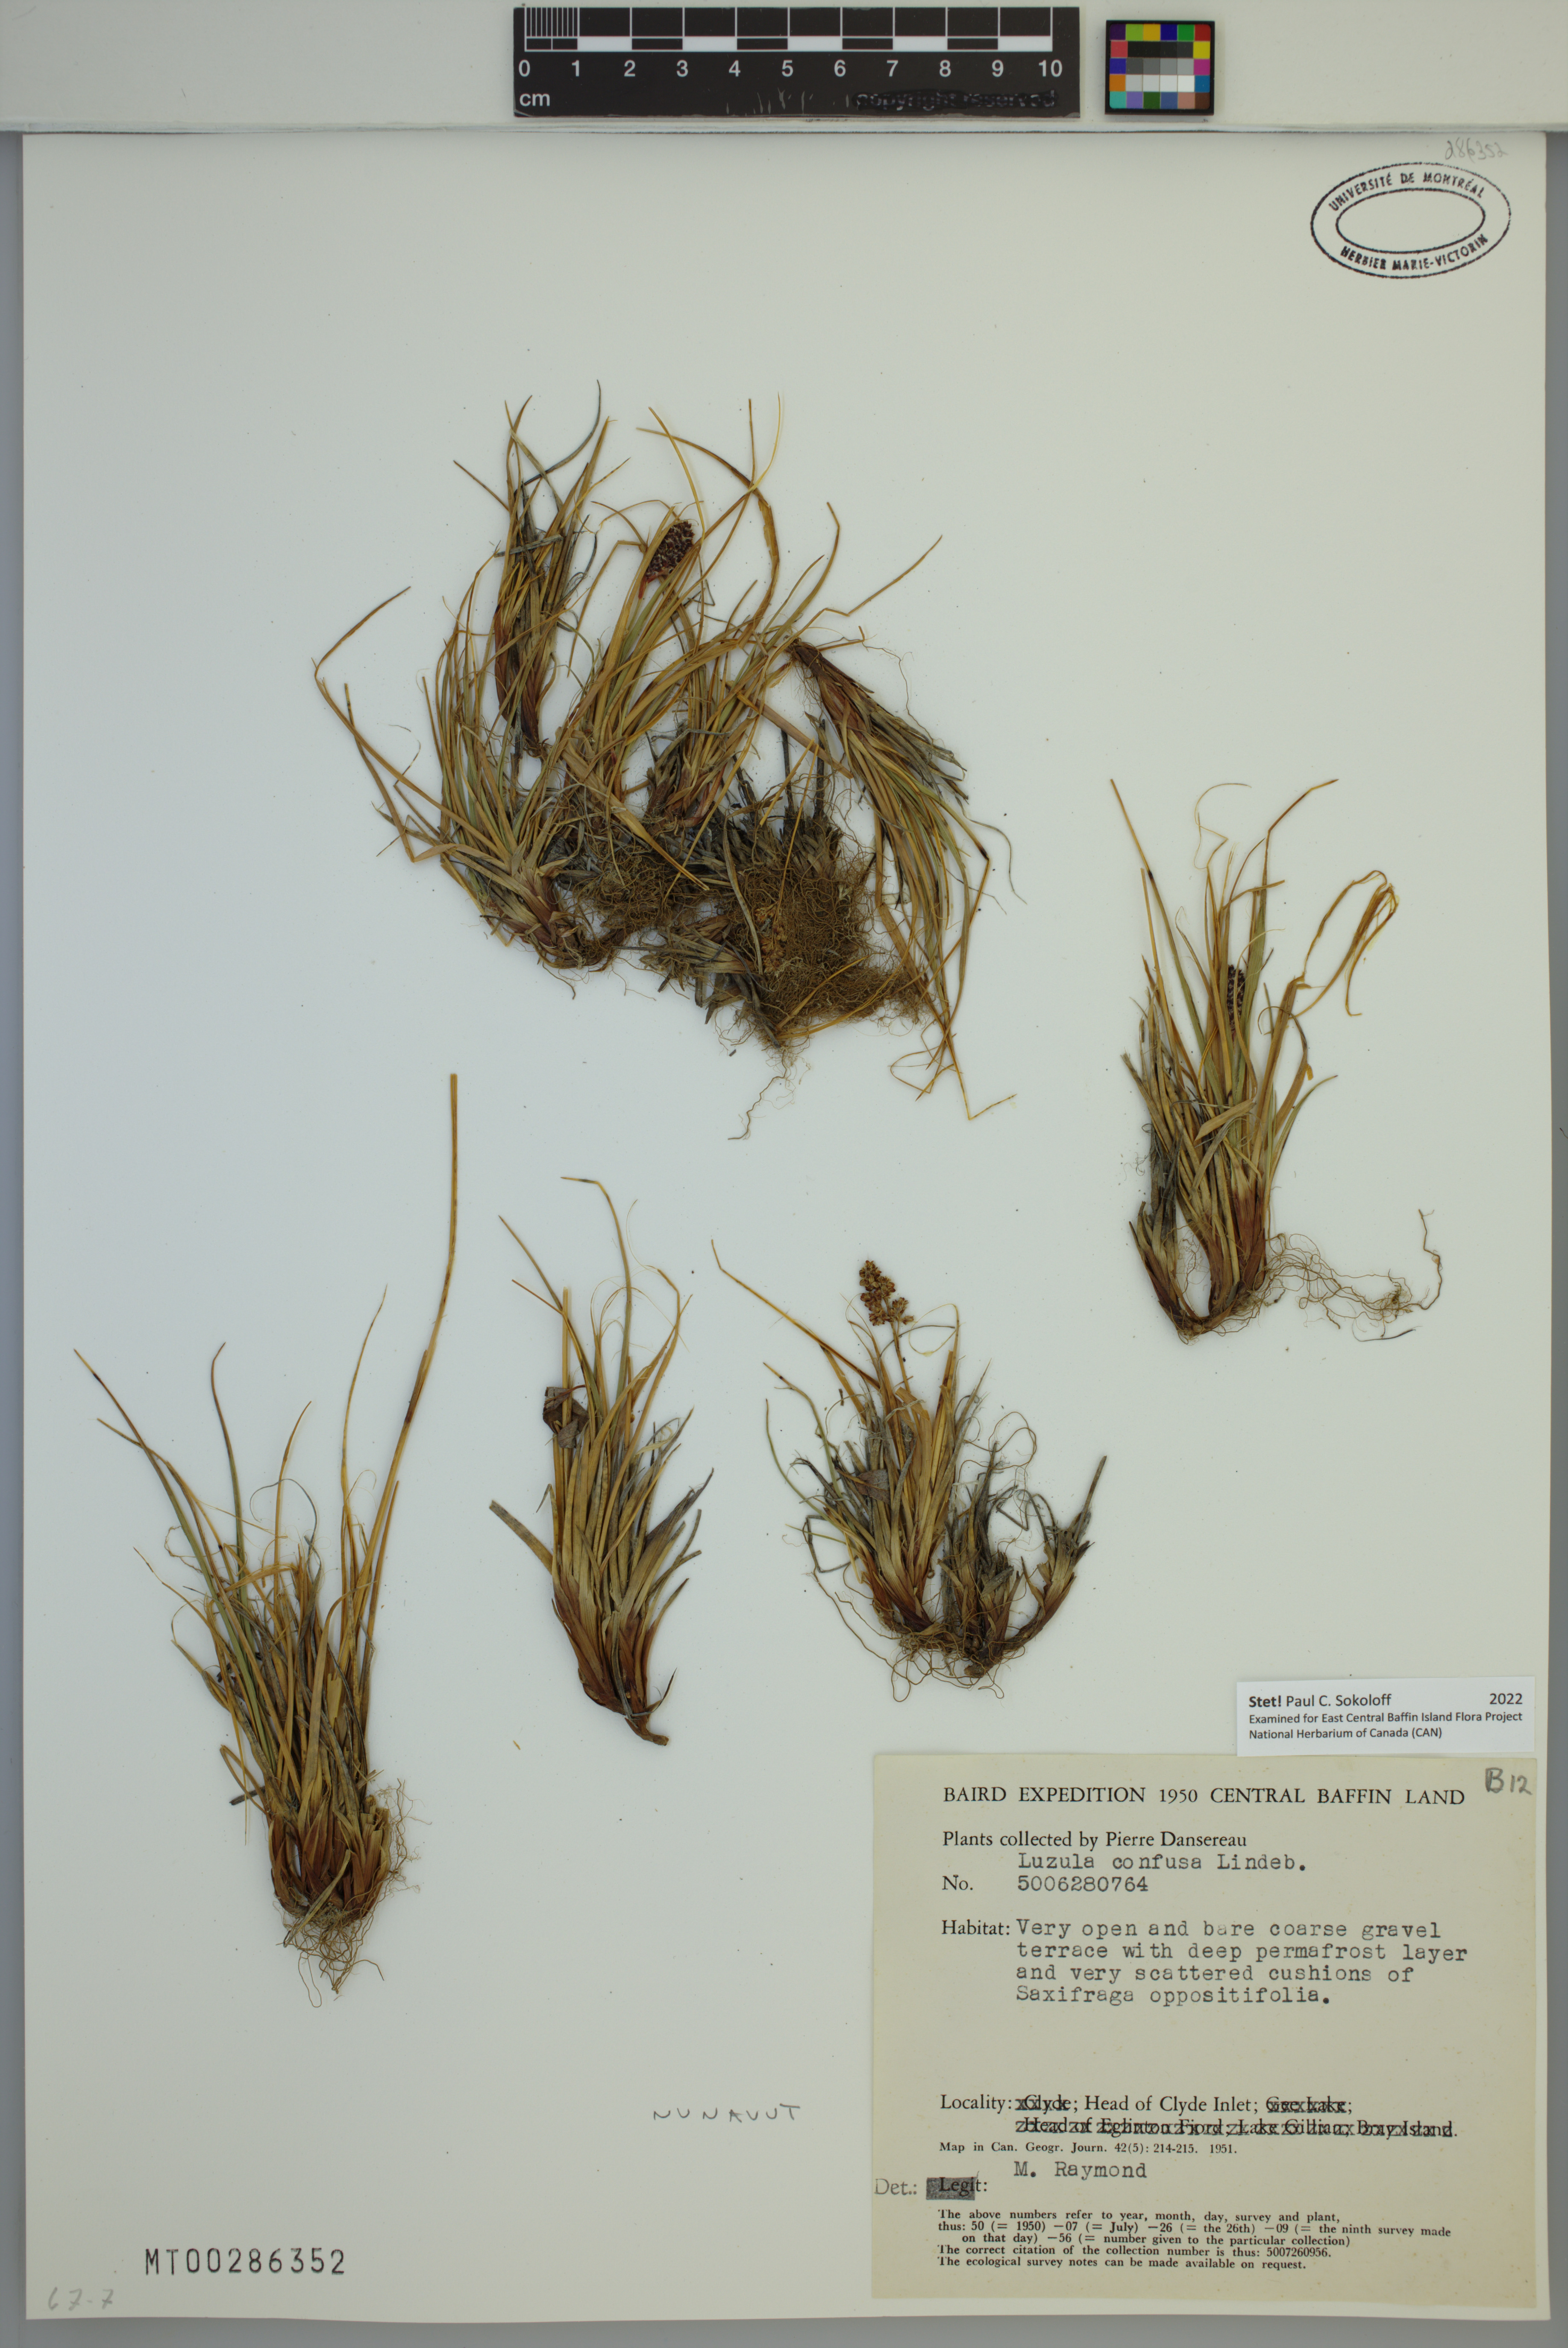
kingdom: Plantae
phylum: Tracheophyta
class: Liliopsida
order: Poales
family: Juncaceae
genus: Luzula
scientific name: Luzula confusa
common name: Northern wood rush
